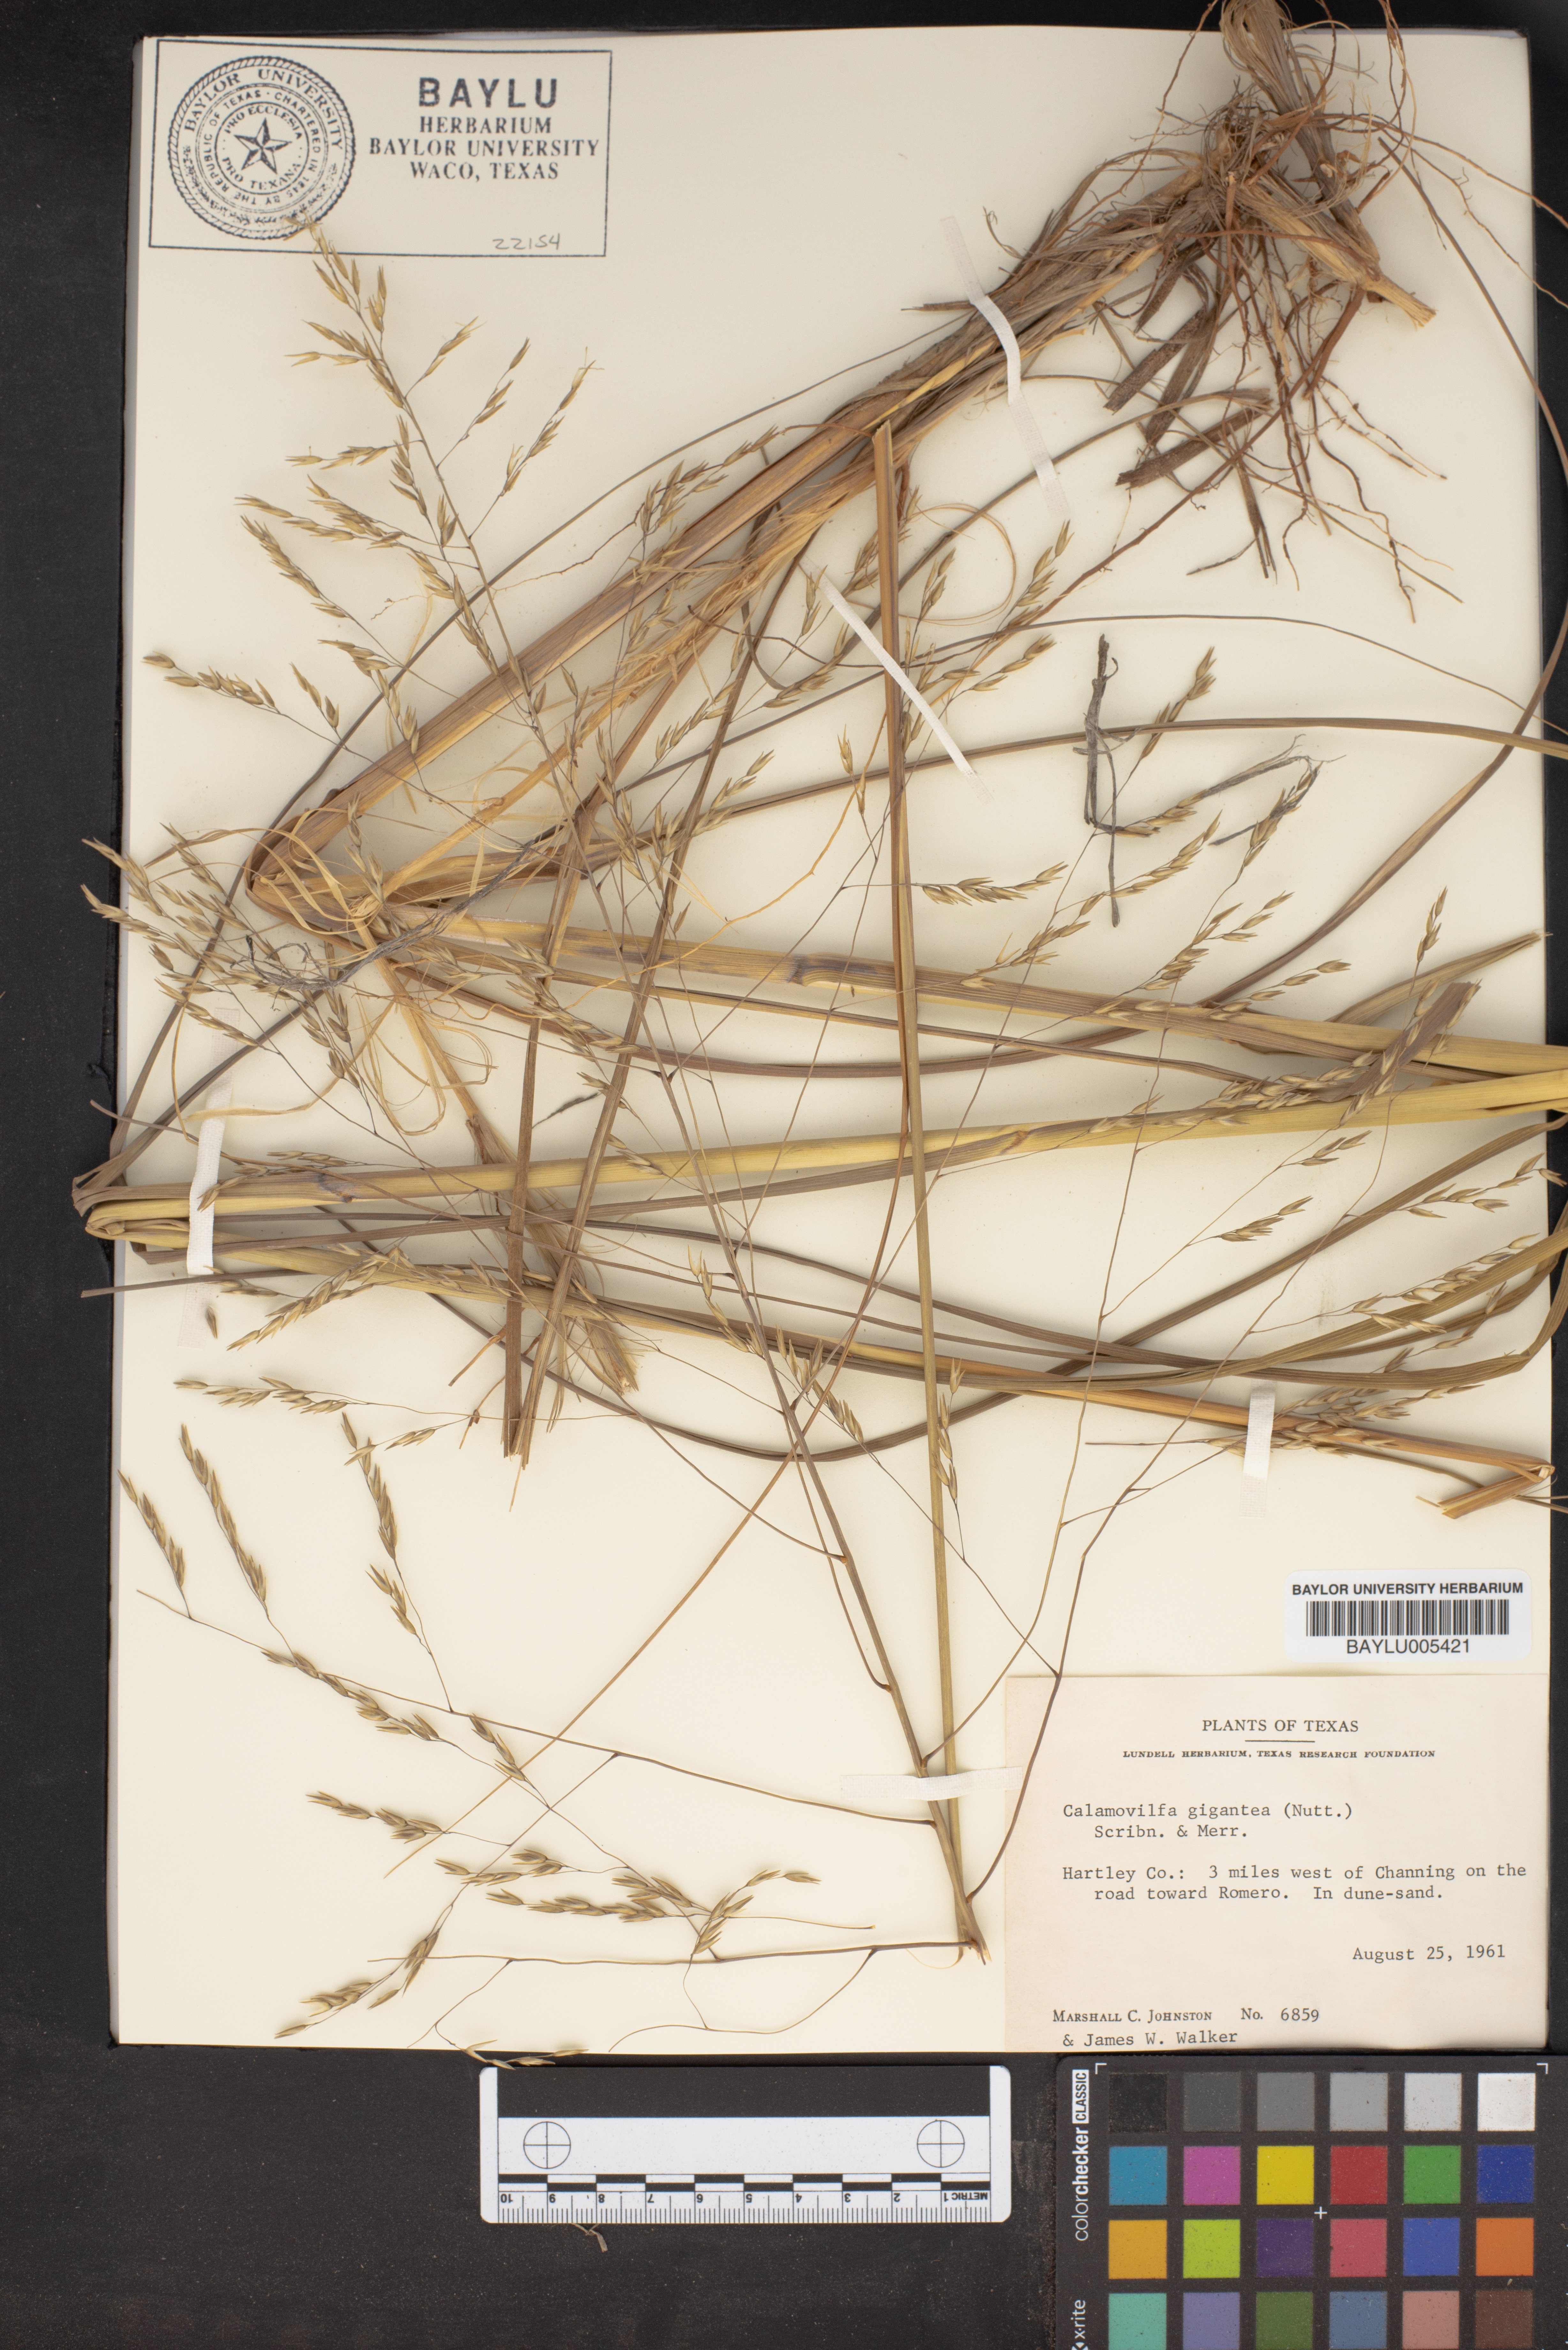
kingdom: Plantae
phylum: Tracheophyta
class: Liliopsida
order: Poales
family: Poaceae
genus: Sporobolus
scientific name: Sporobolus arenicola
